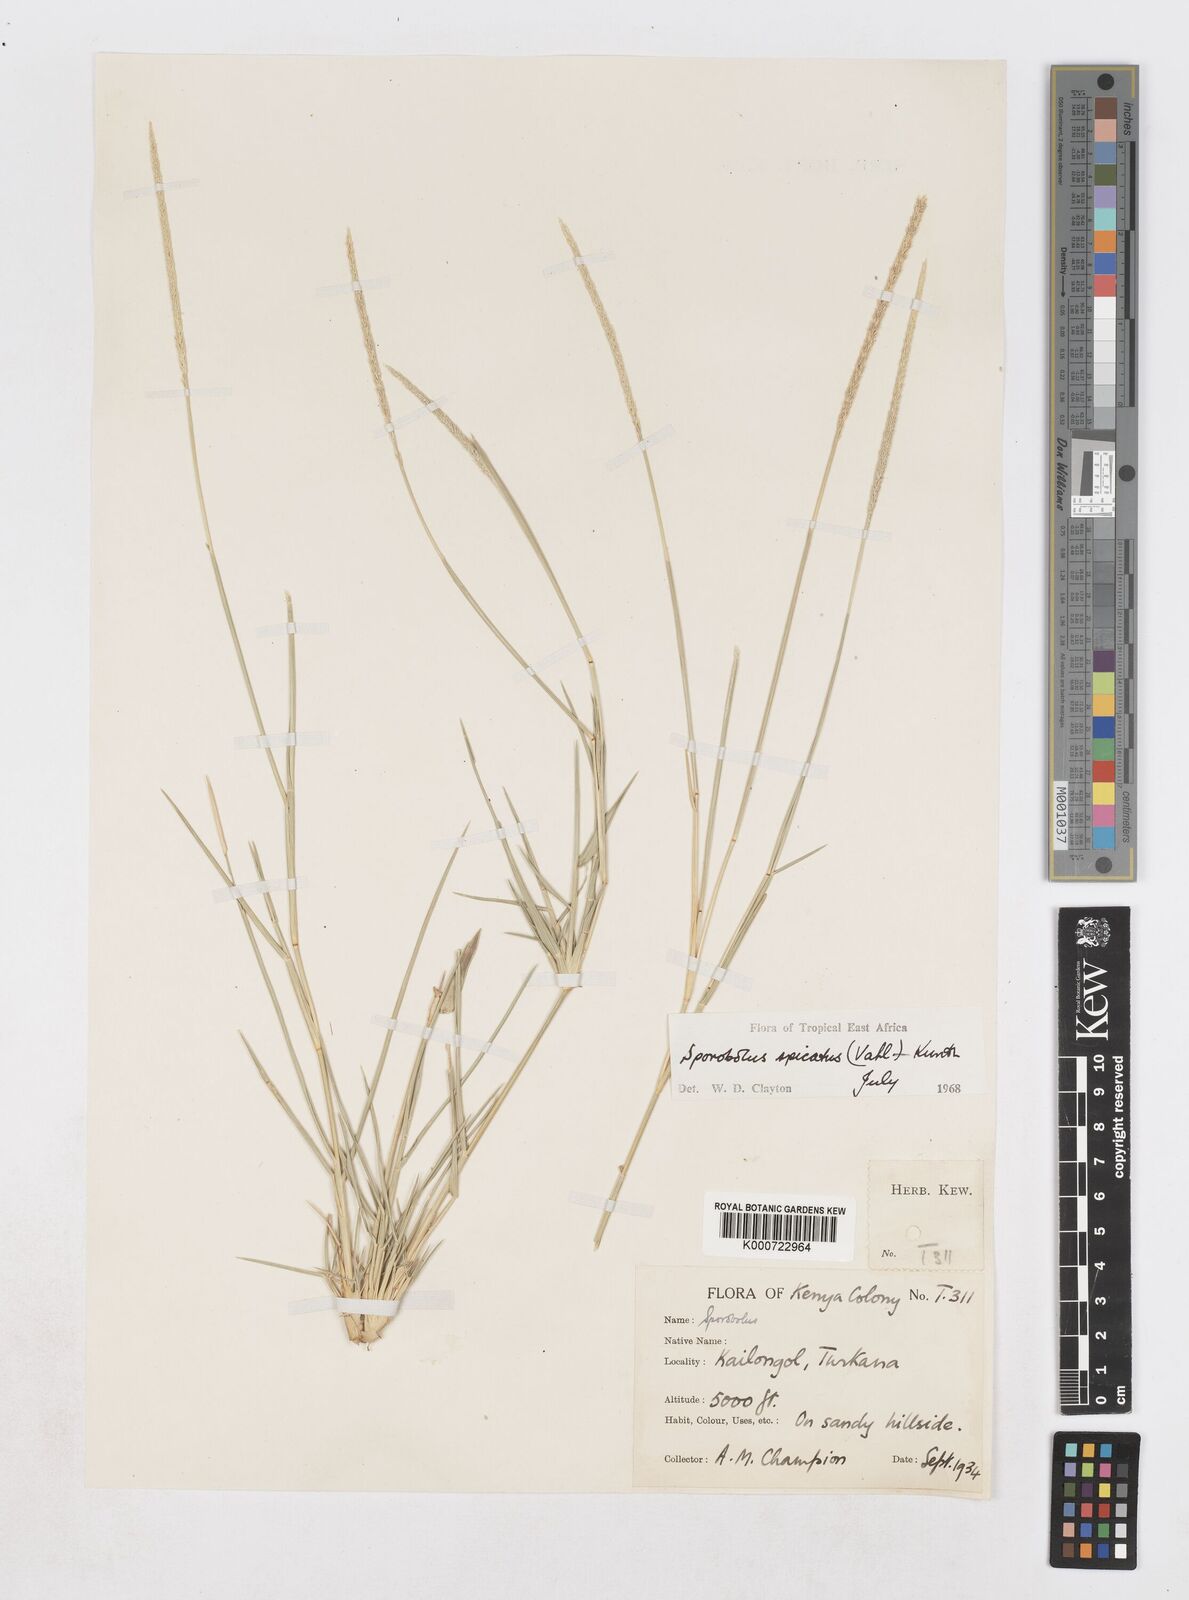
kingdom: Plantae
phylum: Tracheophyta
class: Liliopsida
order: Poales
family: Poaceae
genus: Sporobolus
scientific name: Sporobolus spicatus
